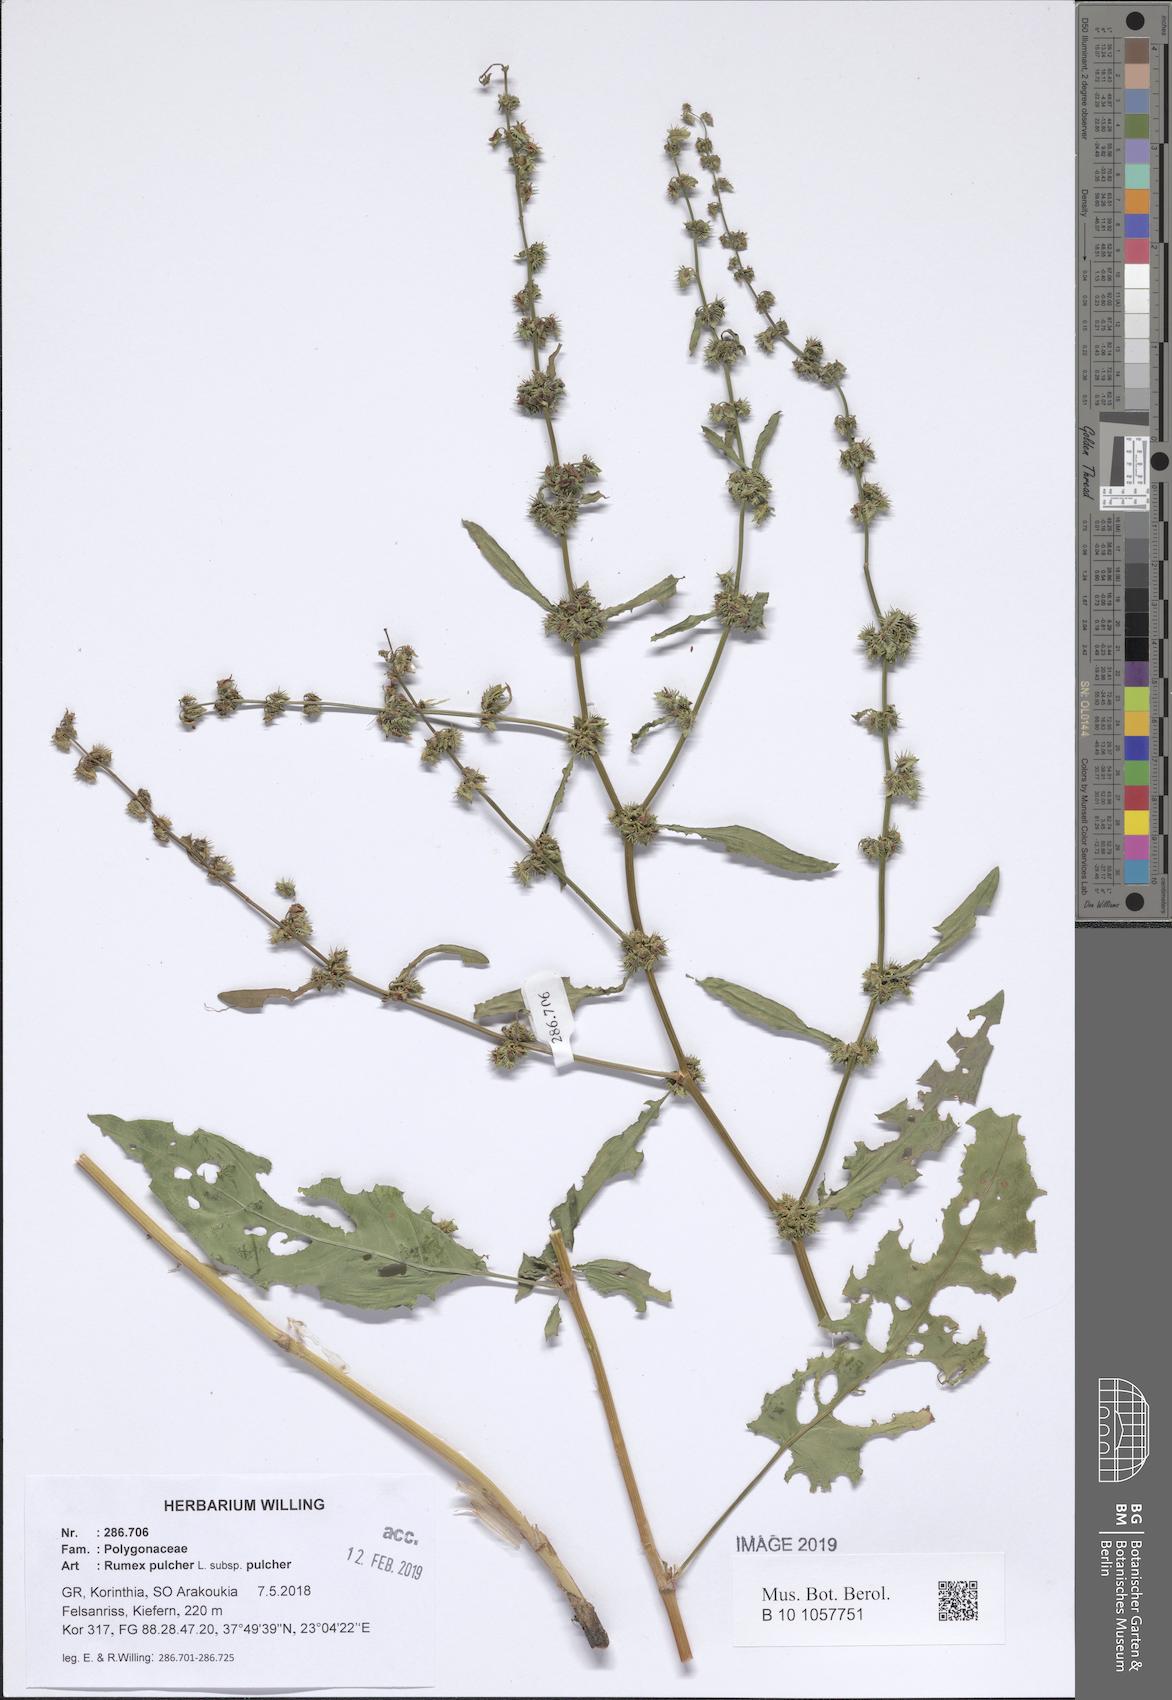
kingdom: Plantae
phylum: Tracheophyta
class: Magnoliopsida
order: Caryophyllales
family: Polygonaceae
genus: Rumex
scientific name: Rumex pulcher
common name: Fiddle dock
